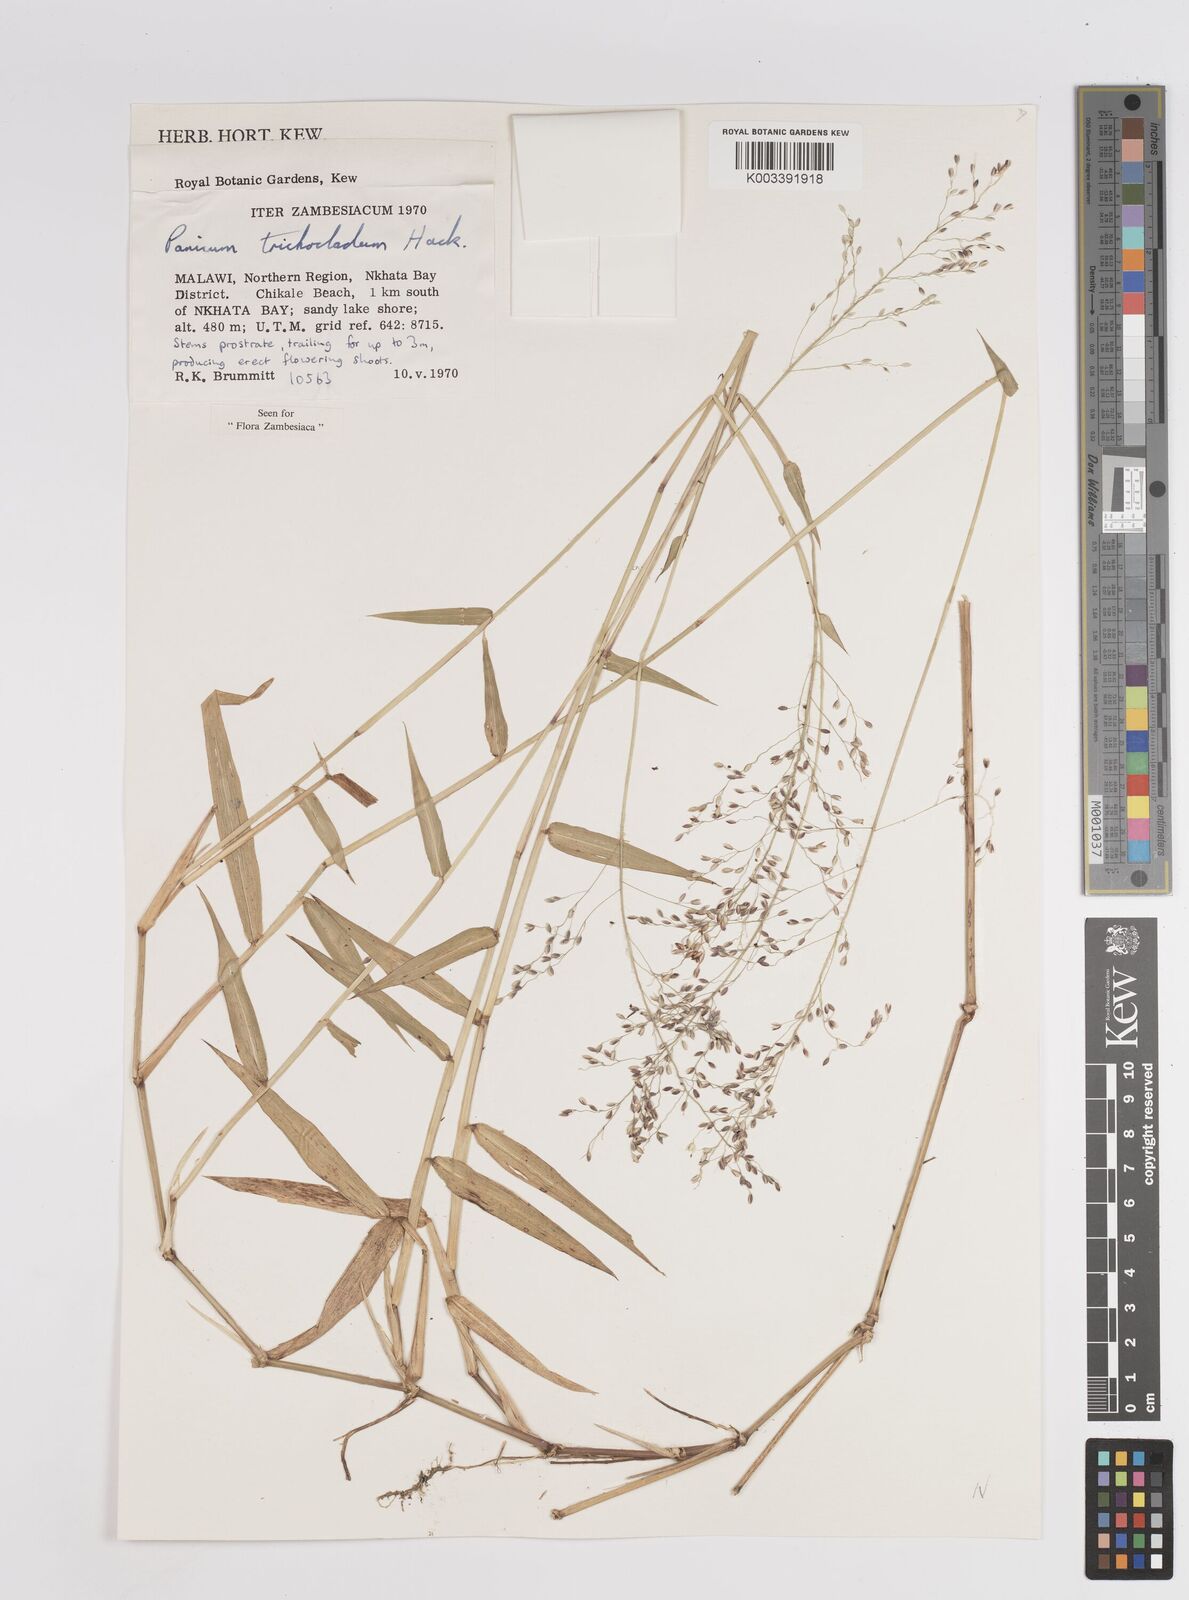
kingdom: Plantae
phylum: Tracheophyta
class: Liliopsida
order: Poales
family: Poaceae
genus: Panicum
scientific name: Panicum trichocladum
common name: Donkey grass
